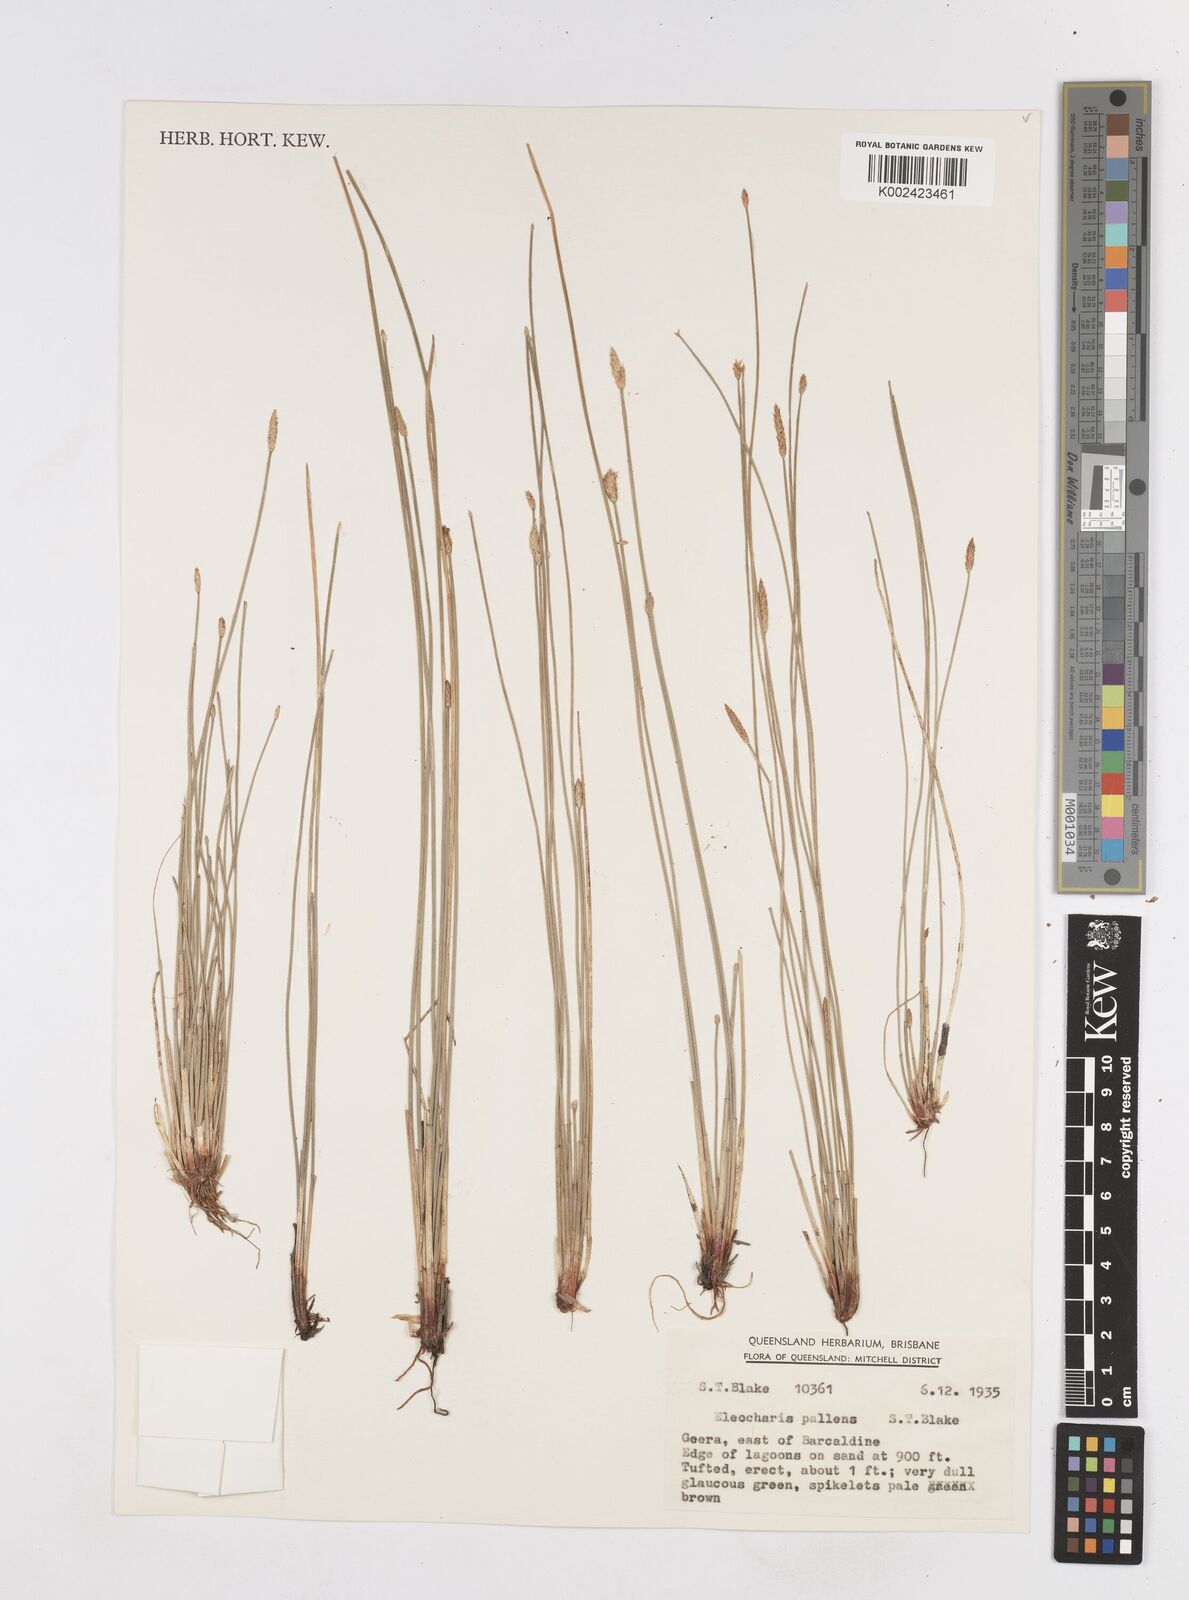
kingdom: Plantae
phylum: Tracheophyta
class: Liliopsida
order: Poales
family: Cyperaceae
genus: Eleocharis
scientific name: Eleocharis acuta
